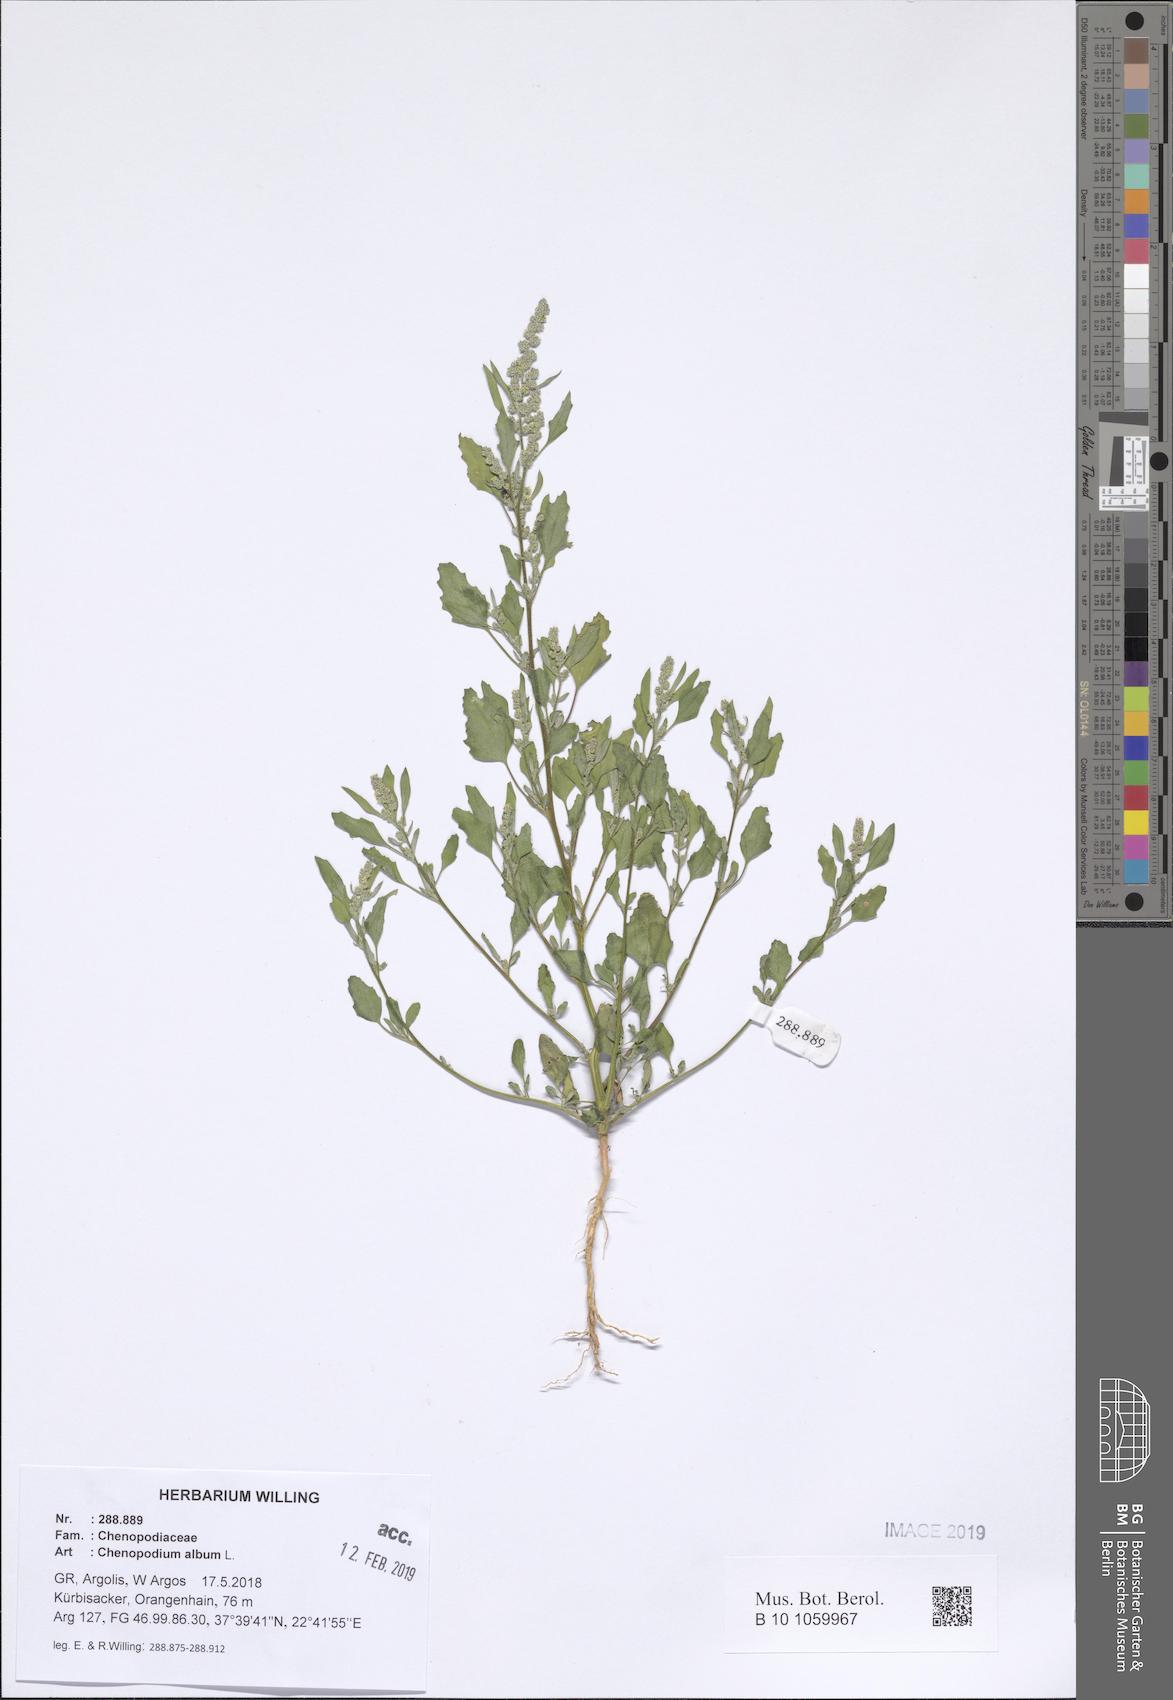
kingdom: Plantae
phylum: Tracheophyta
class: Magnoliopsida
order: Caryophyllales
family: Amaranthaceae
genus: Chenopodium
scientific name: Chenopodium album
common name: Fat-hen
